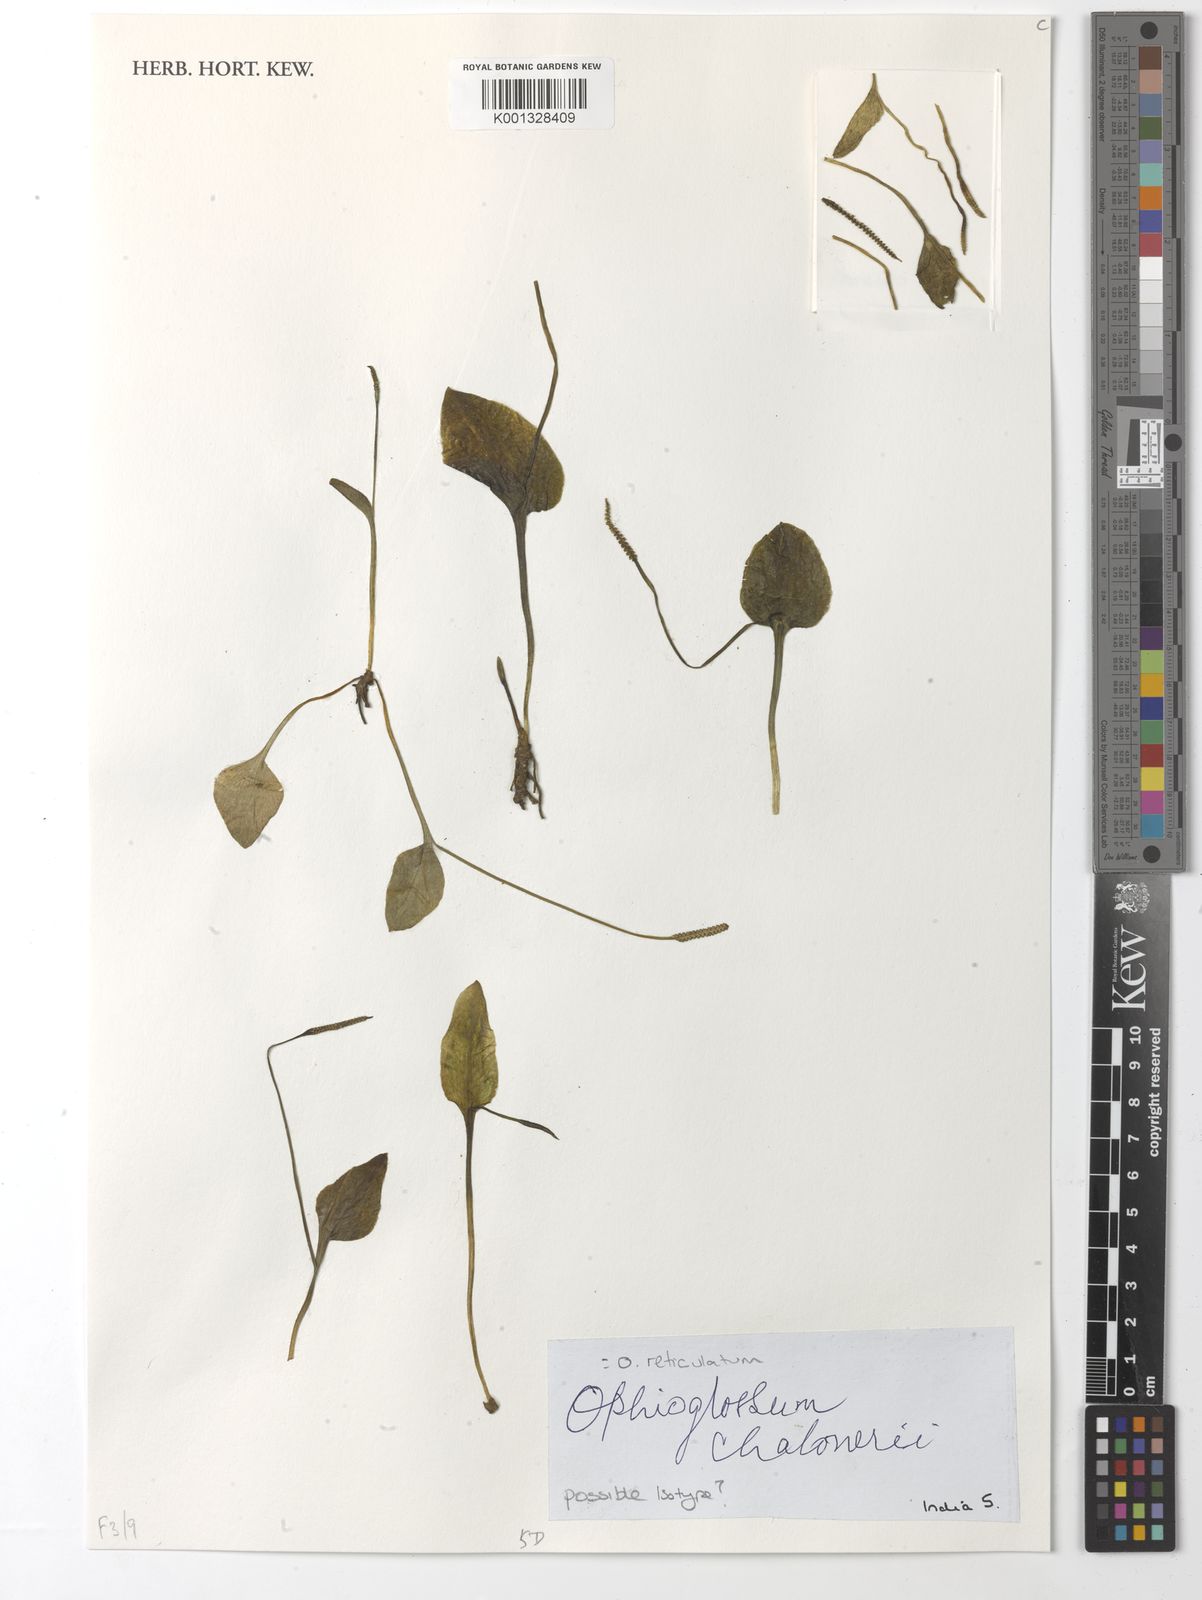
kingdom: Plantae
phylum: Tracheophyta
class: Polypodiopsida
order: Ophioglossales
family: Ophioglossaceae
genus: Ophioglossum
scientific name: Ophioglossum reticulatum
